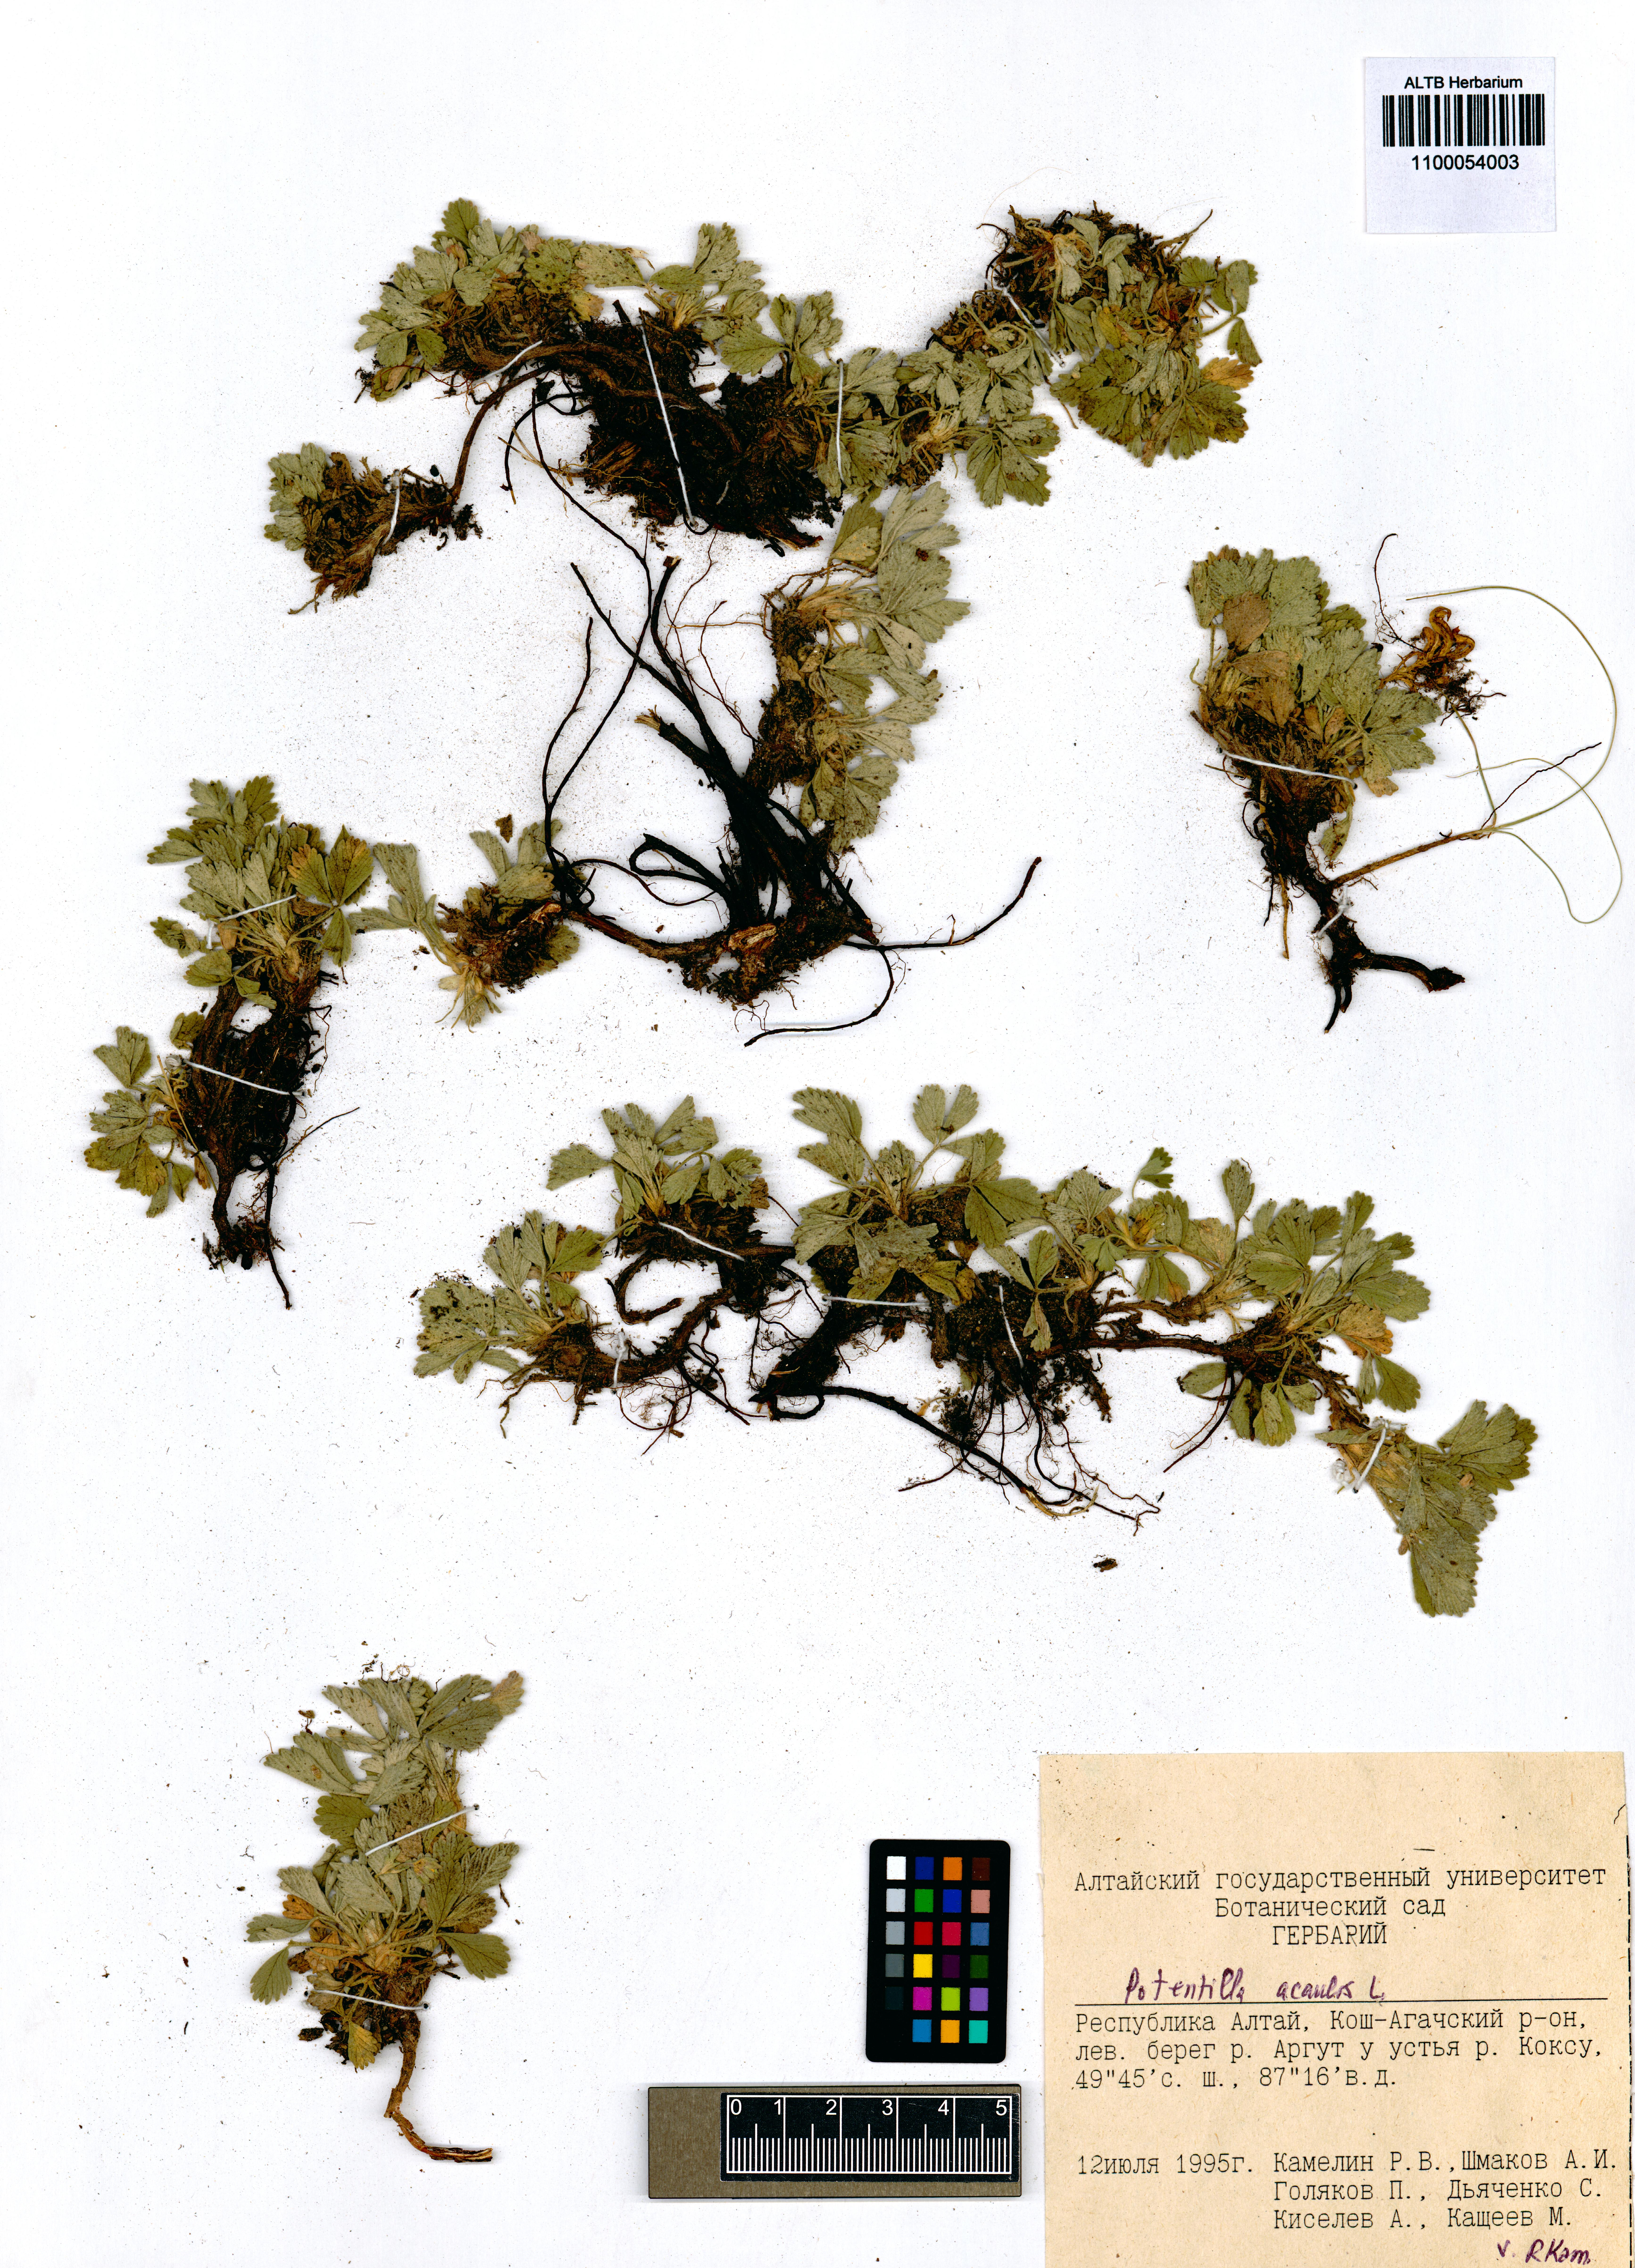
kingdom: Plantae
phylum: Tracheophyta
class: Magnoliopsida
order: Rosales
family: Rosaceae
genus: Potentilla
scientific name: Potentilla acaulis
